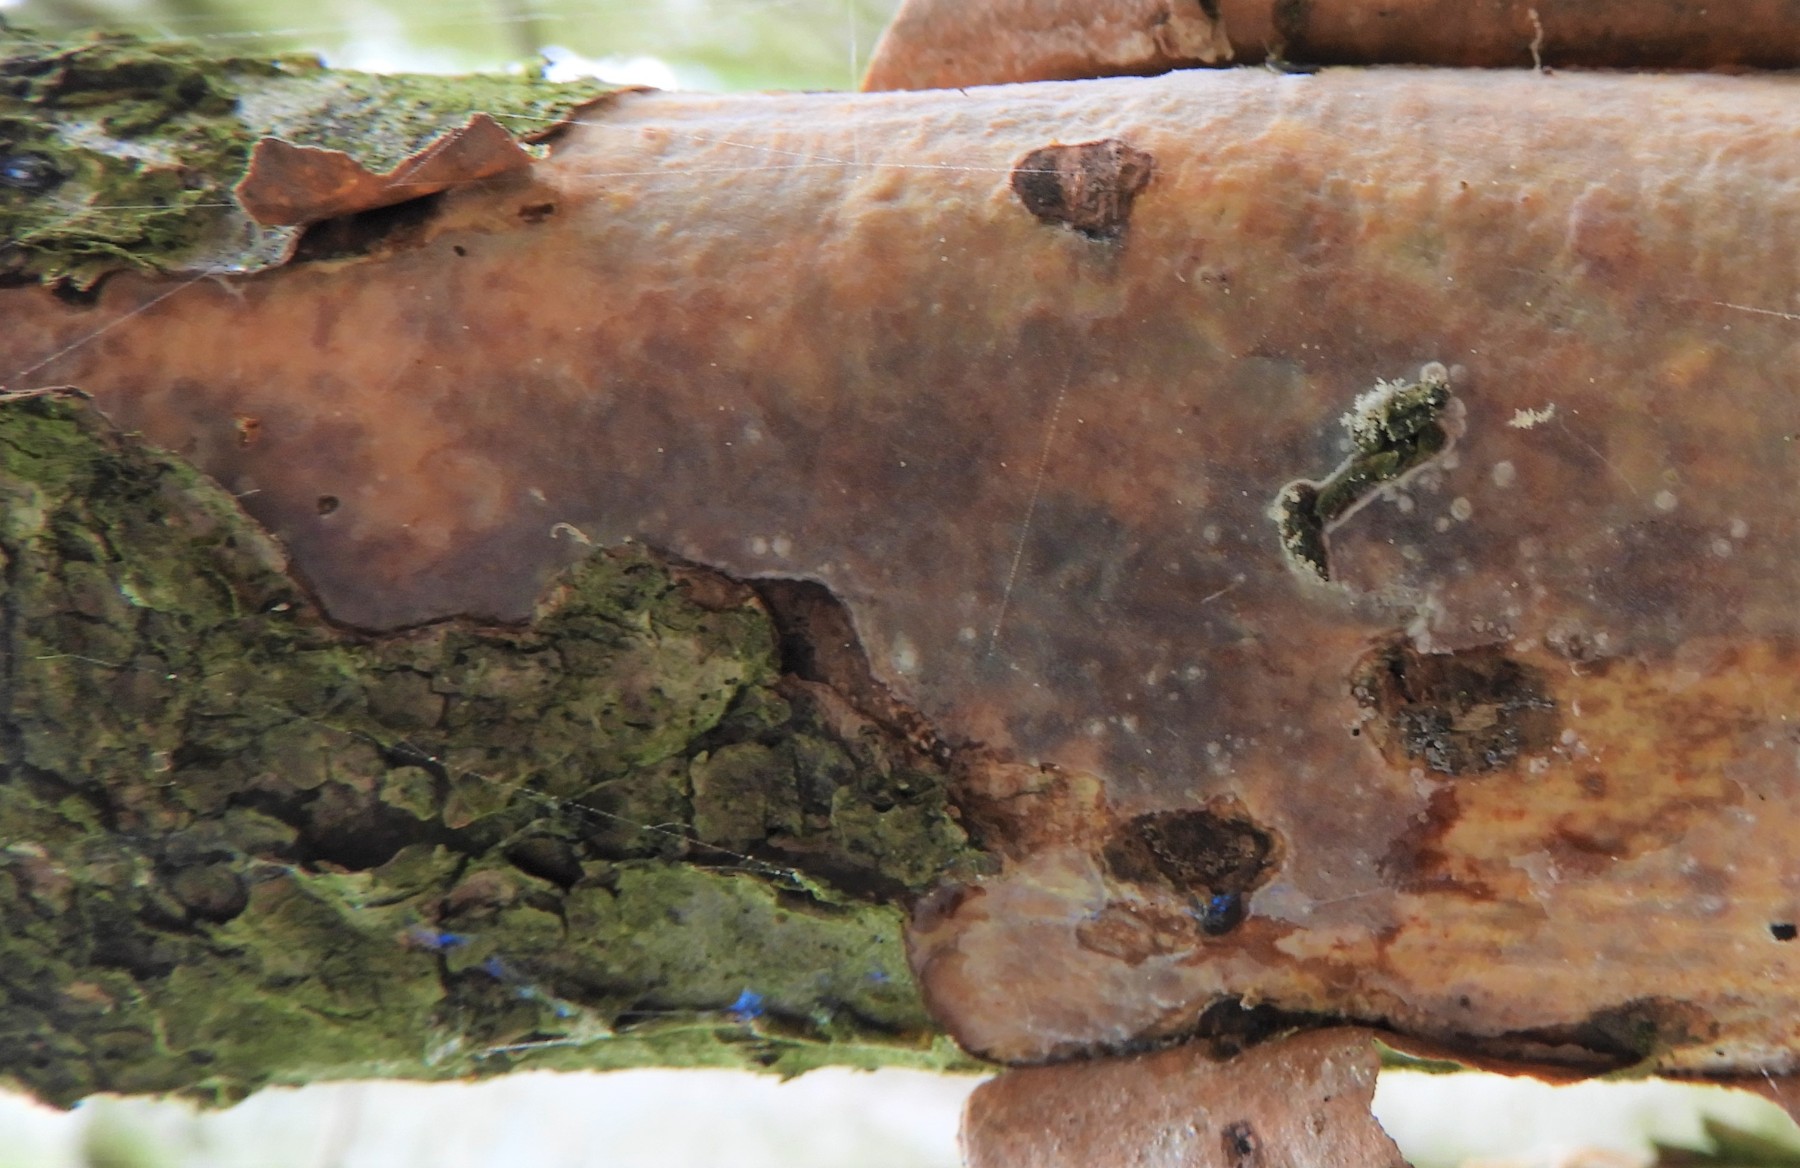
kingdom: Fungi
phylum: Basidiomycota
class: Agaricomycetes
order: Corticiales
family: Vuilleminiaceae
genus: Vuilleminia
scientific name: Vuilleminia coryli
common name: hassel-barksprænger
